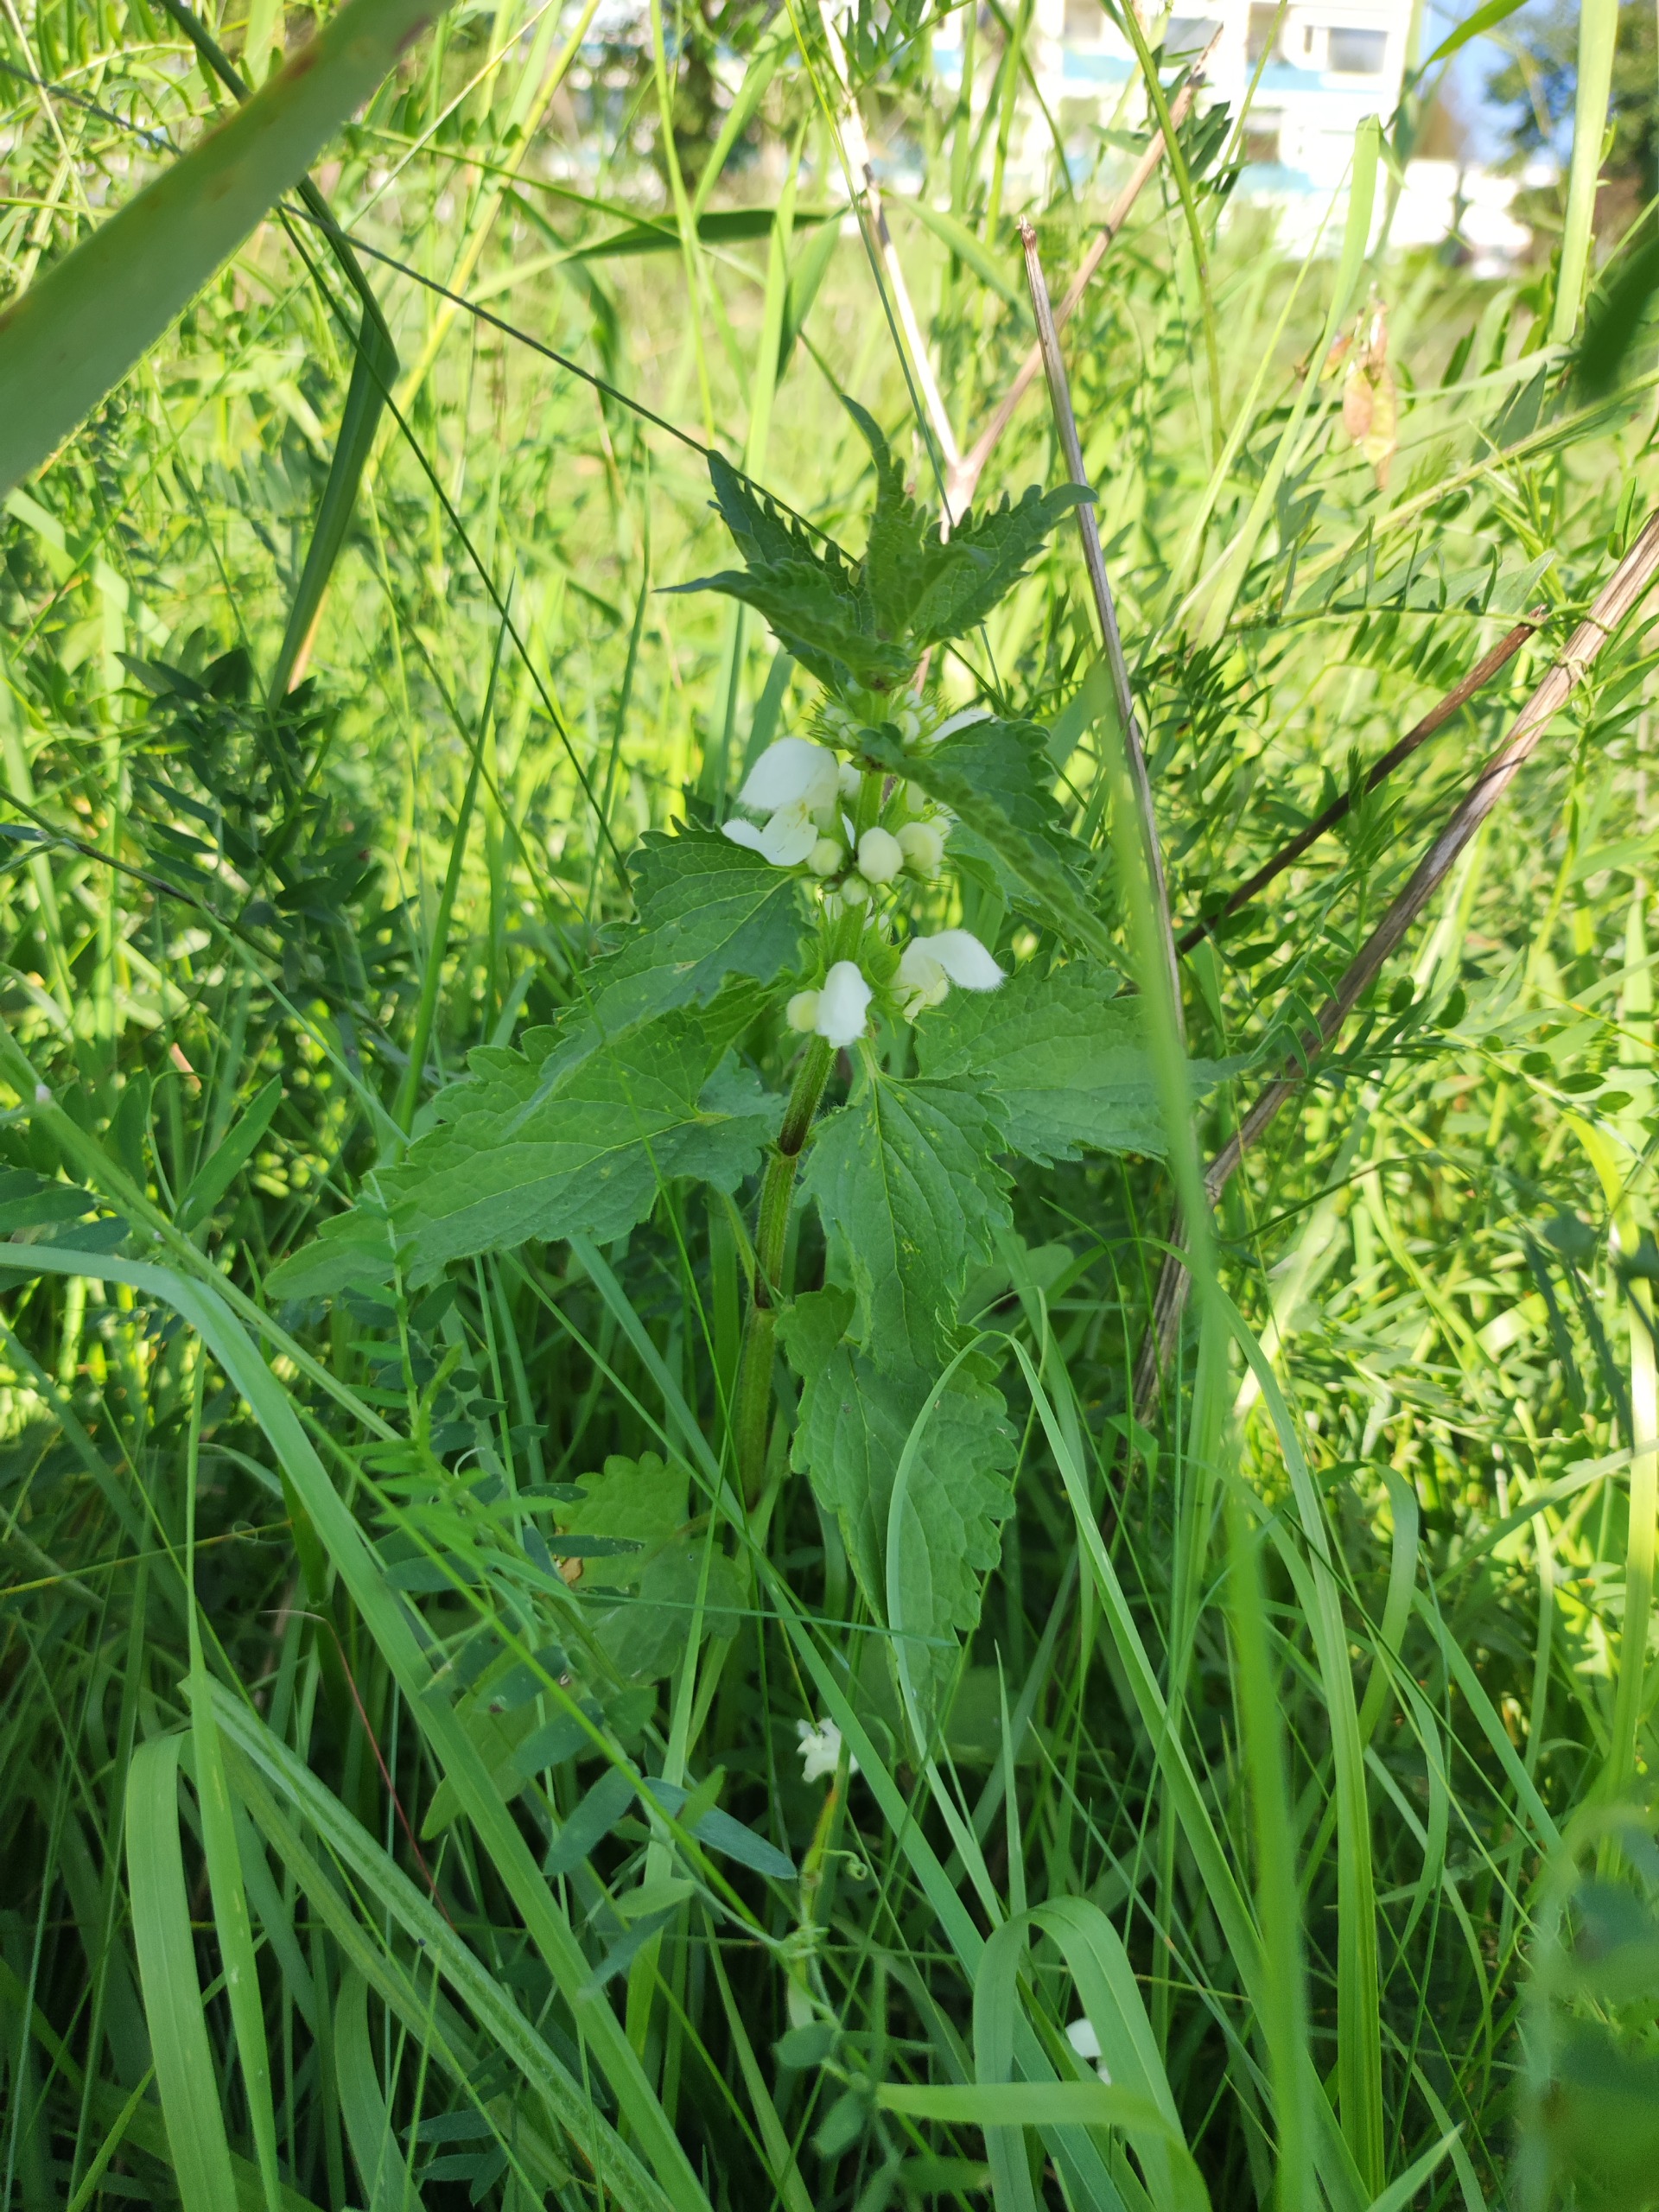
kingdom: Plantae
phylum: Tracheophyta
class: Magnoliopsida
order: Lamiales
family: Lamiaceae
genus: Lamium
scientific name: Lamium album
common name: Døvnælde
